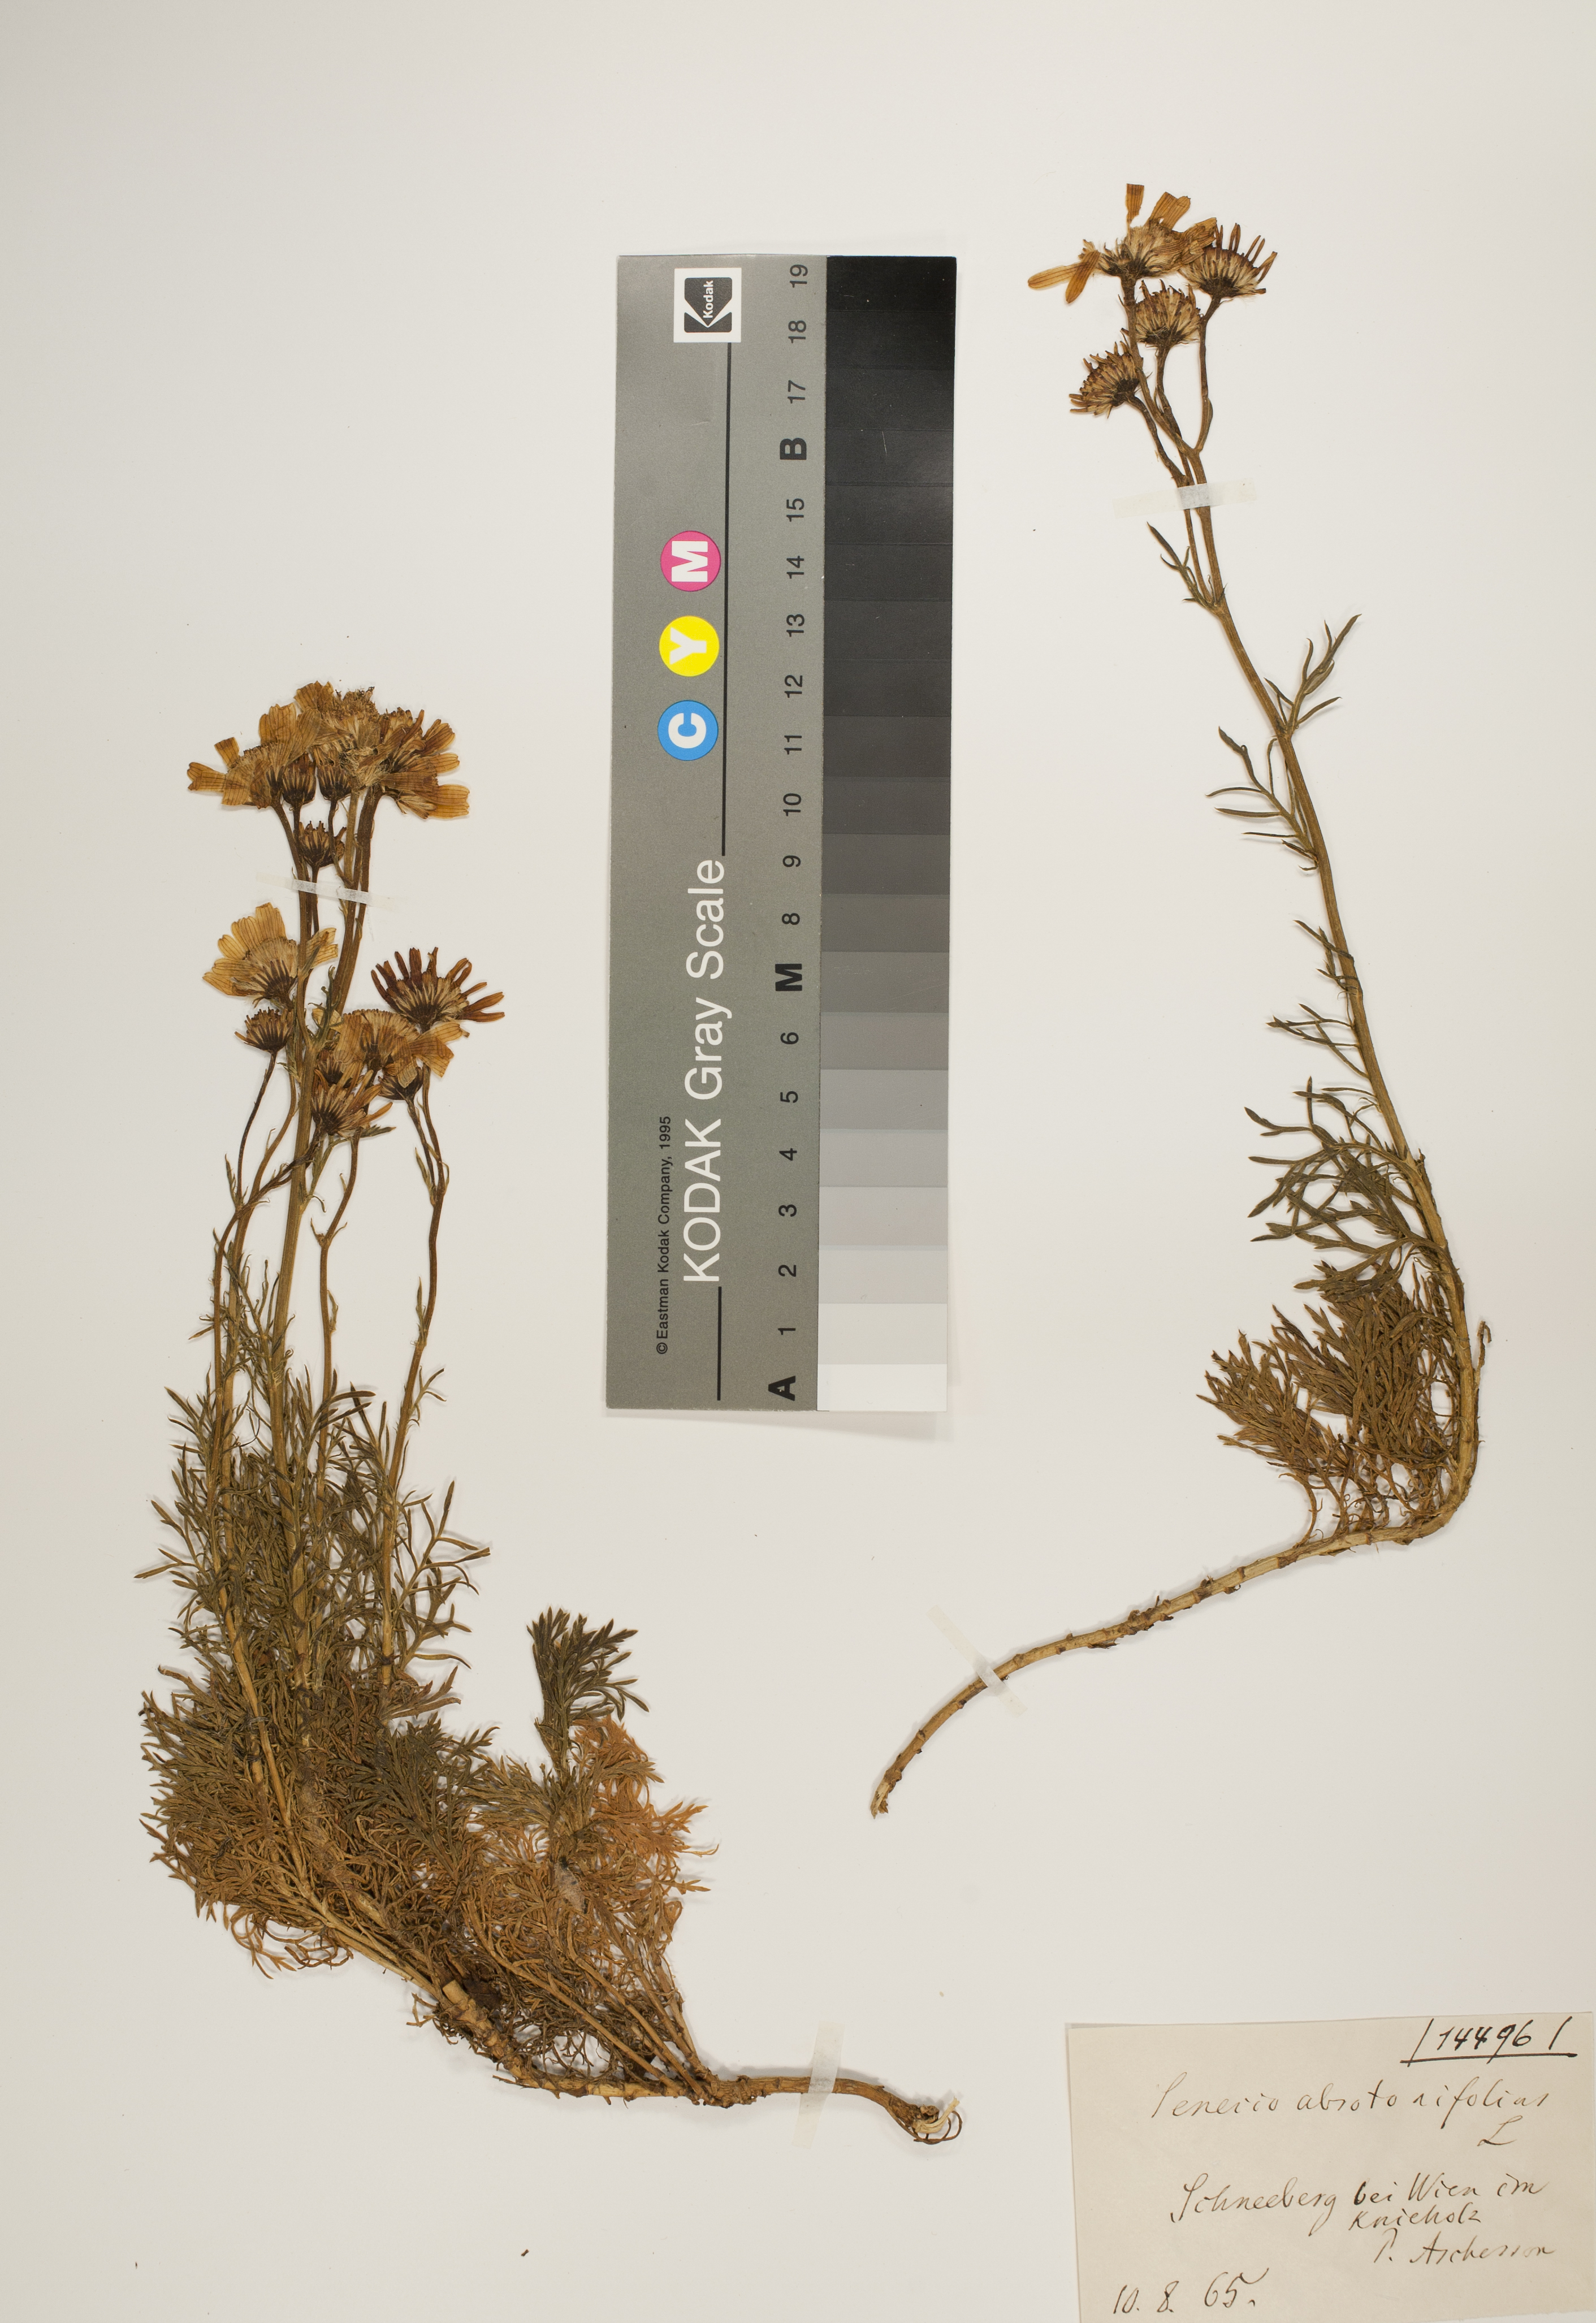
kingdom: Plantae
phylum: Tracheophyta
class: Magnoliopsida
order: Asterales
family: Asteraceae
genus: Jacobaea
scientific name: Jacobaea abrotanifolia
